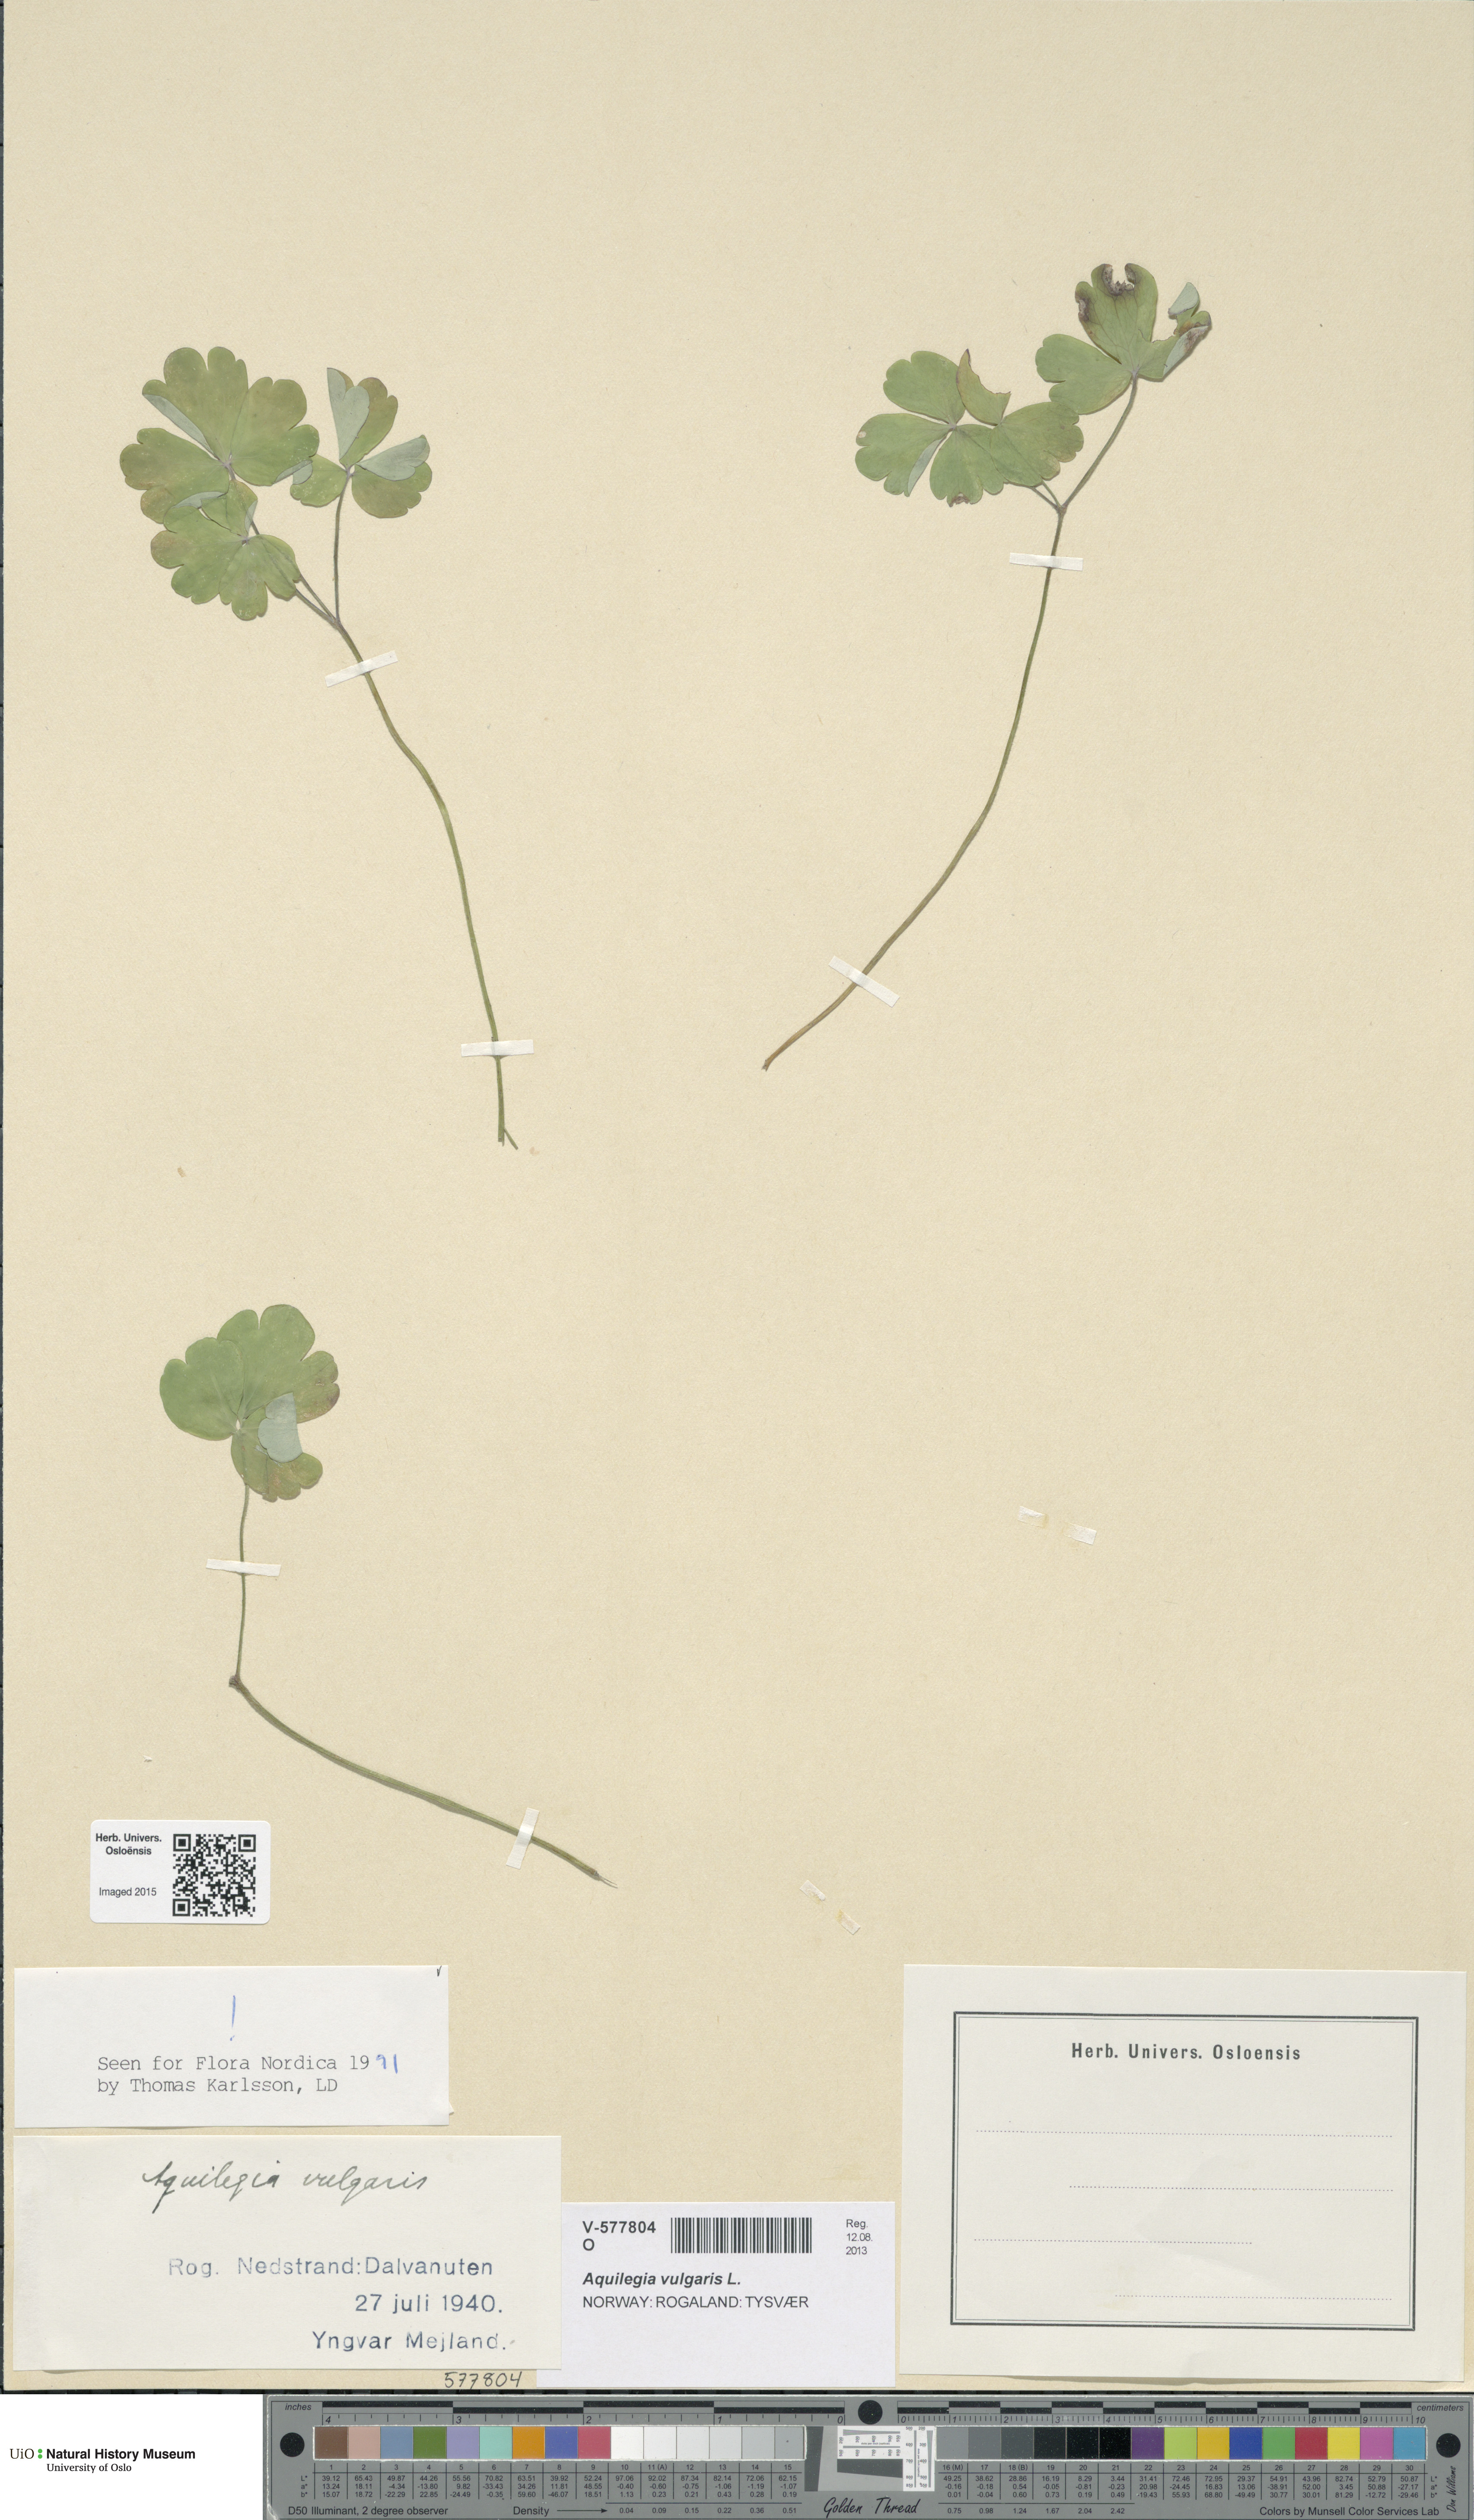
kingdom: Plantae
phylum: Tracheophyta
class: Magnoliopsida
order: Ranunculales
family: Ranunculaceae
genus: Aquilegia
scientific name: Aquilegia vulgaris
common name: Columbine
